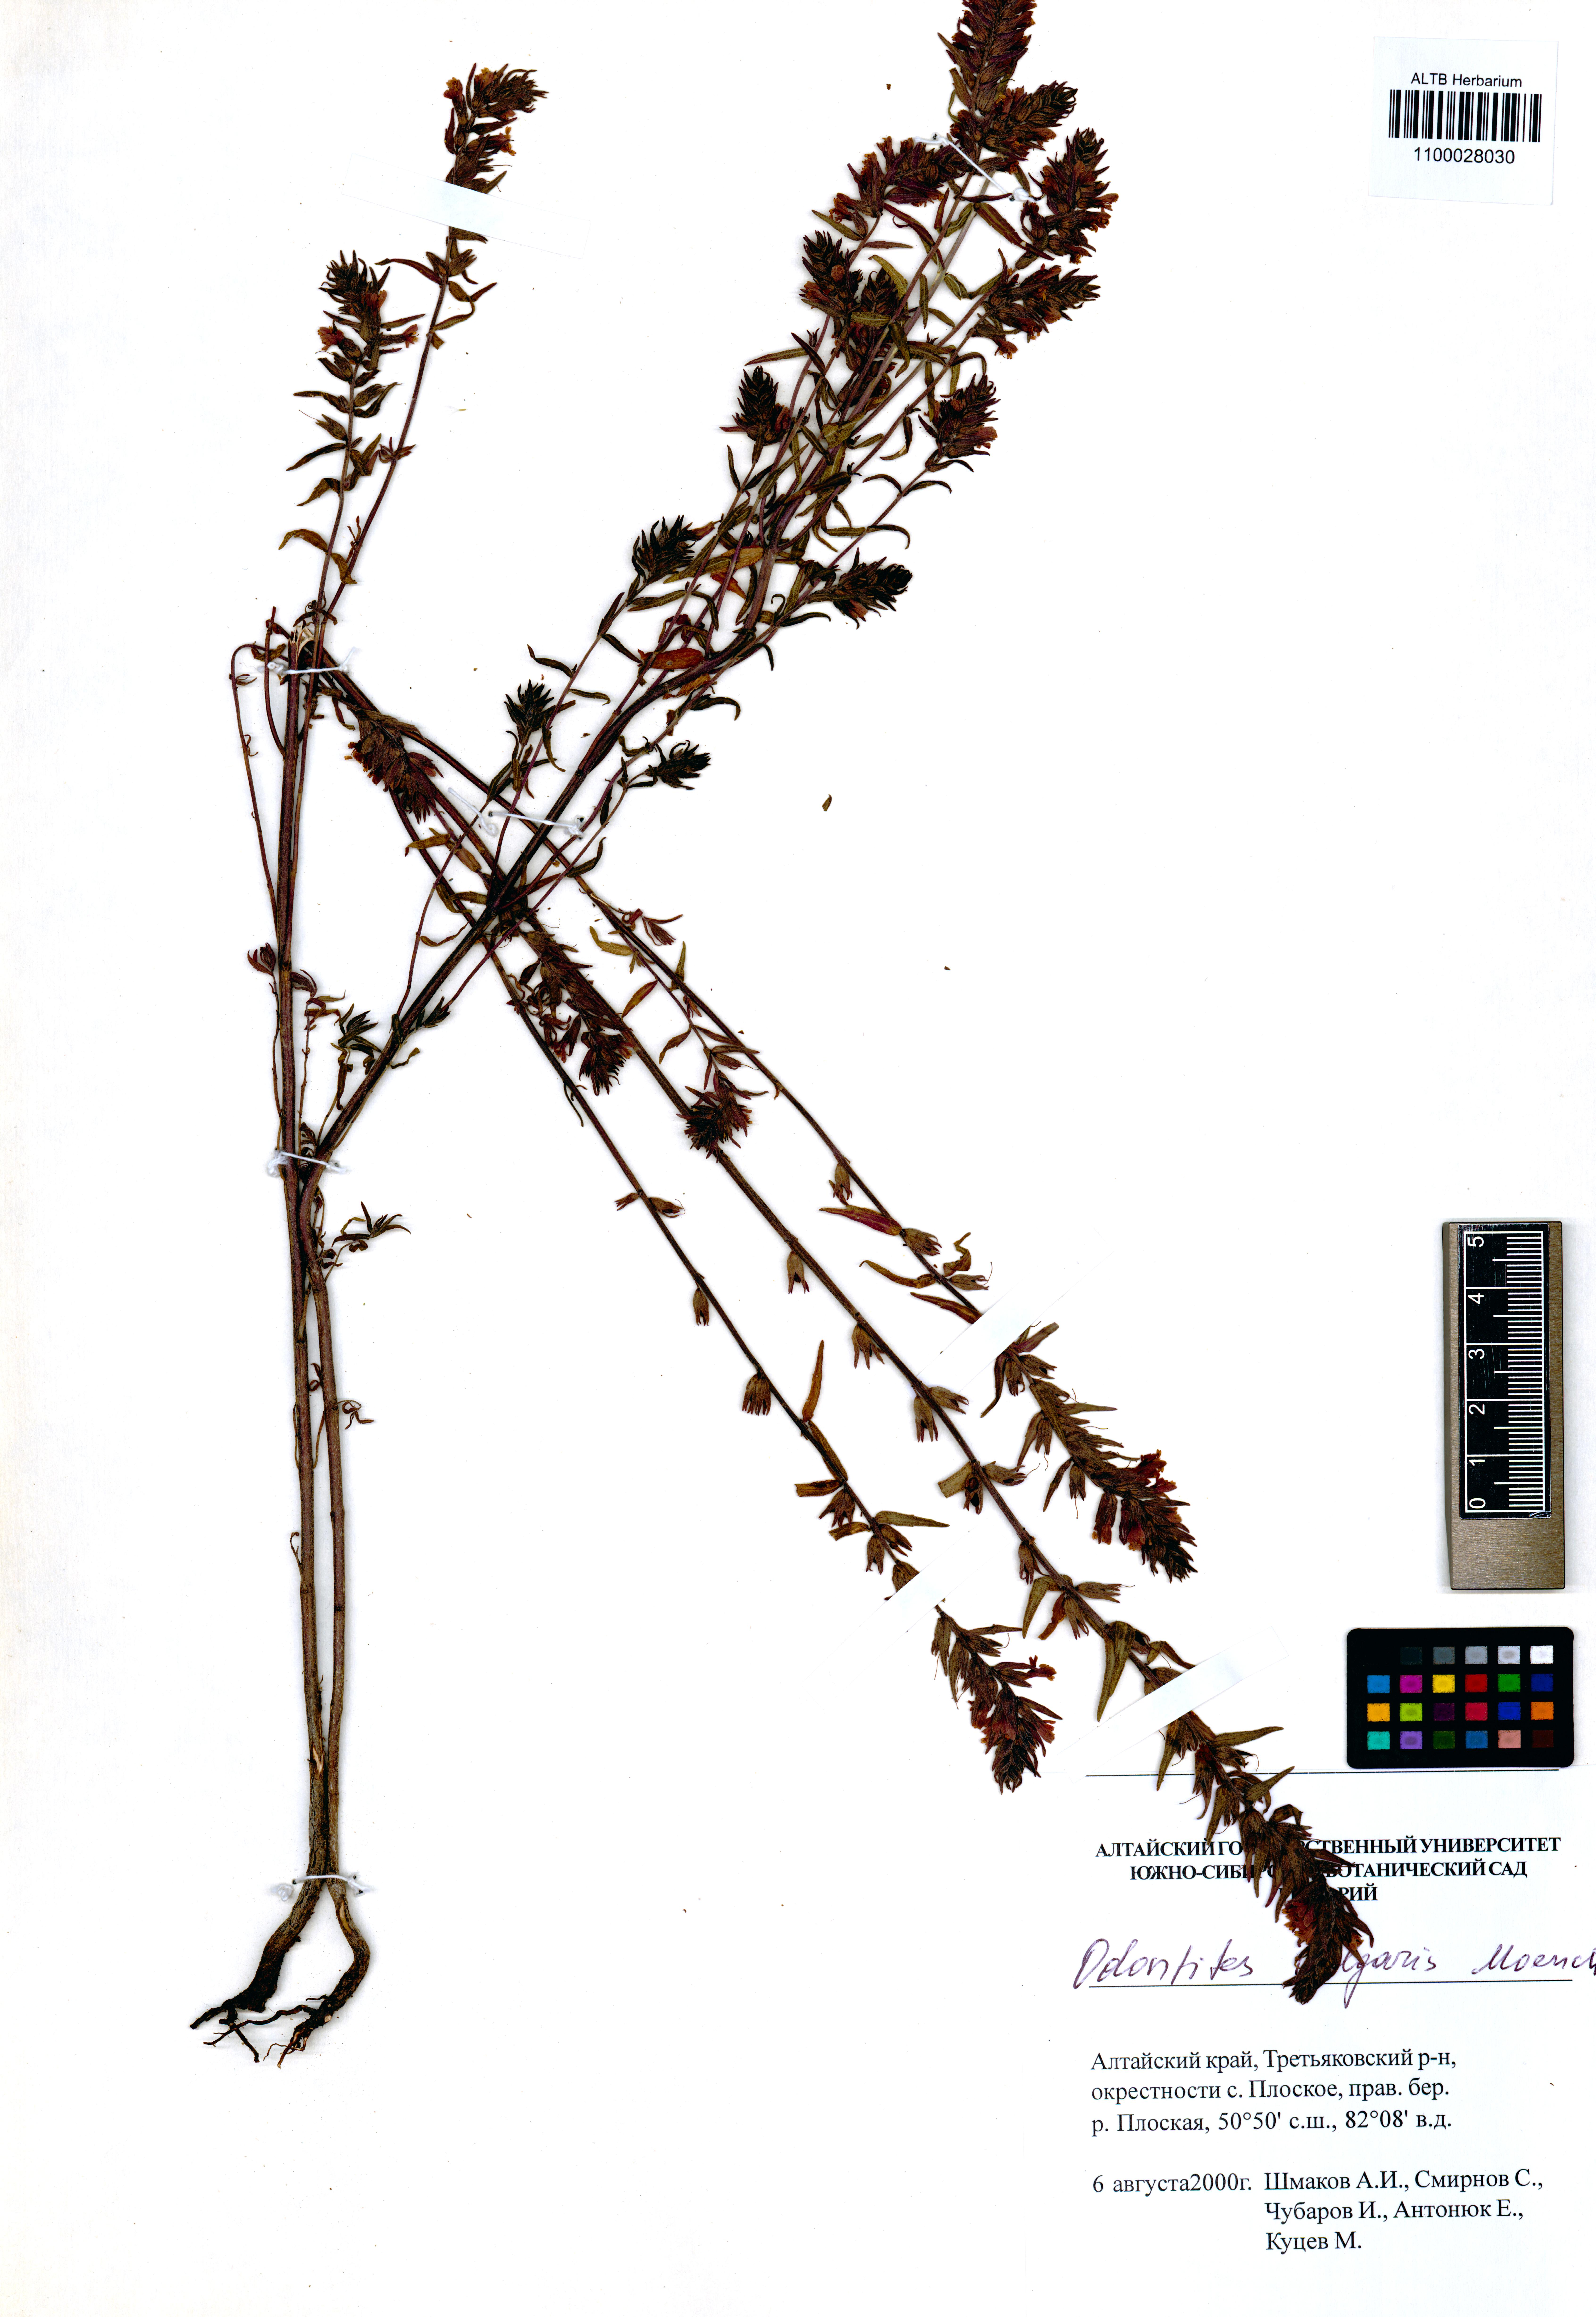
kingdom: Plantae
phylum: Tracheophyta
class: Magnoliopsida
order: Lamiales
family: Orobanchaceae
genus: Odontites
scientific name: Odontites vulgaris
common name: Broomrape
